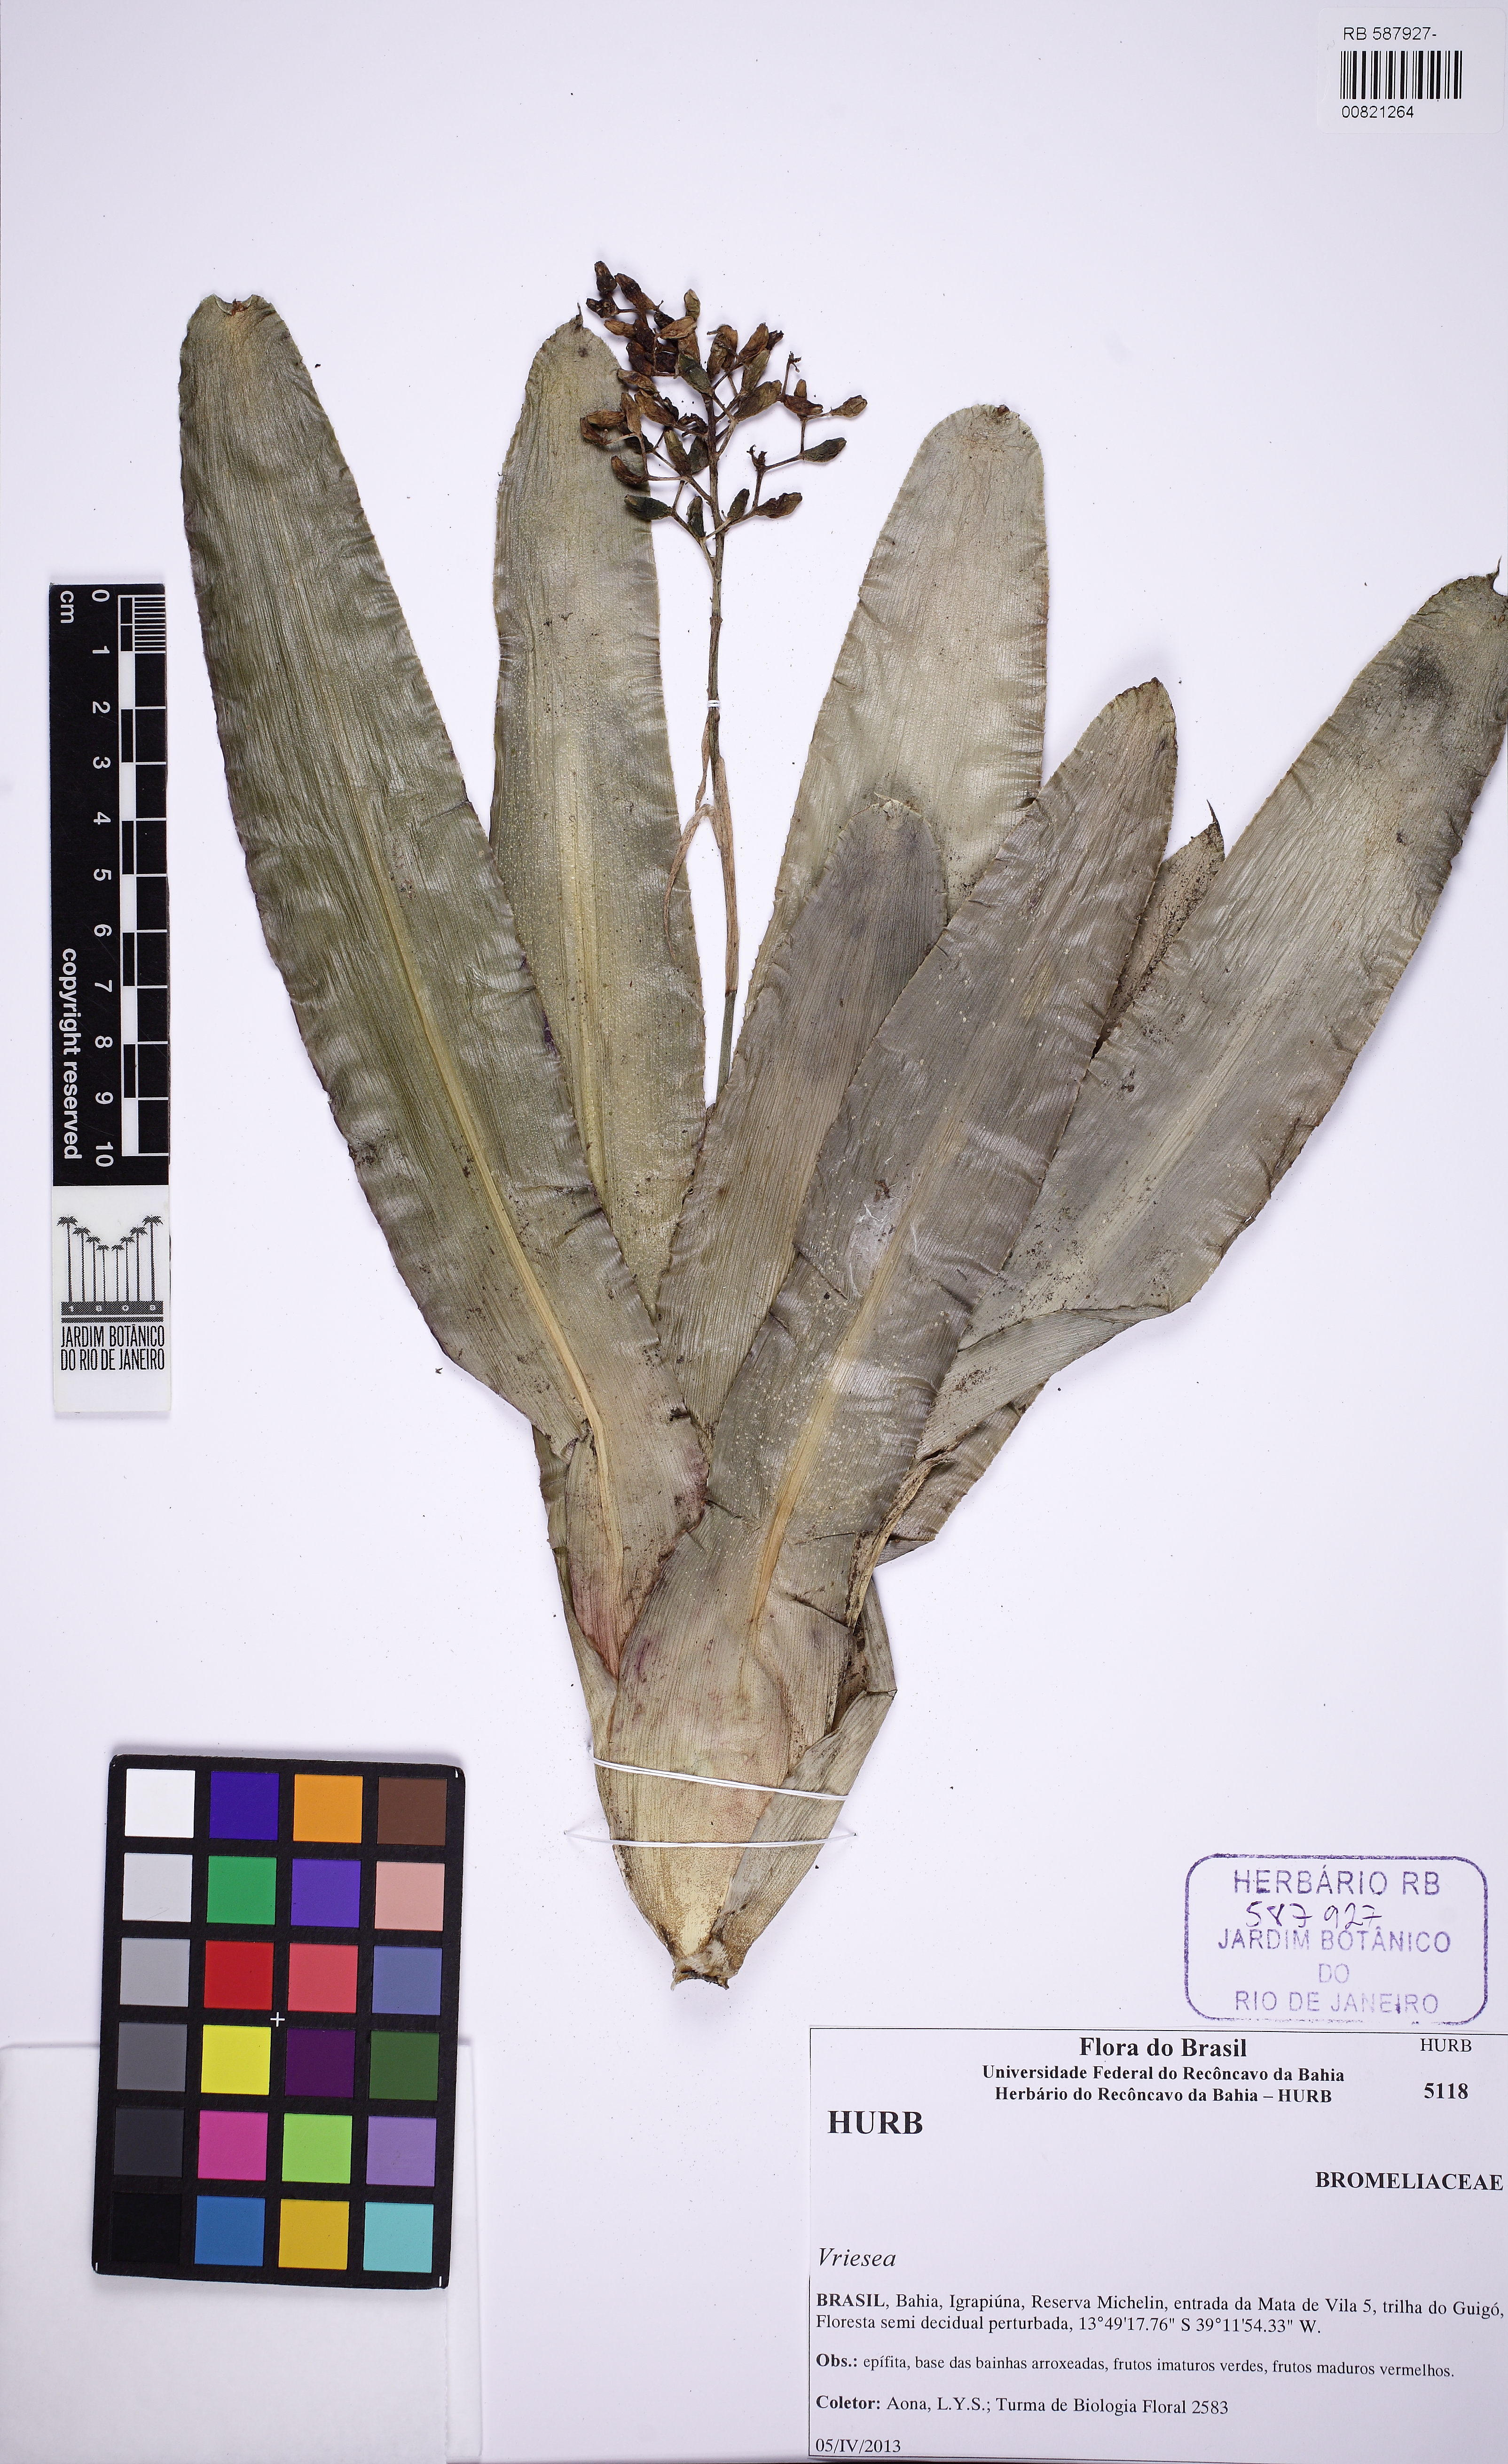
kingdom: Plantae
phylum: Tracheophyta
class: Liliopsida
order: Poales
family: Bromeliaceae
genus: Aechmea
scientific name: Aechmea miniata
